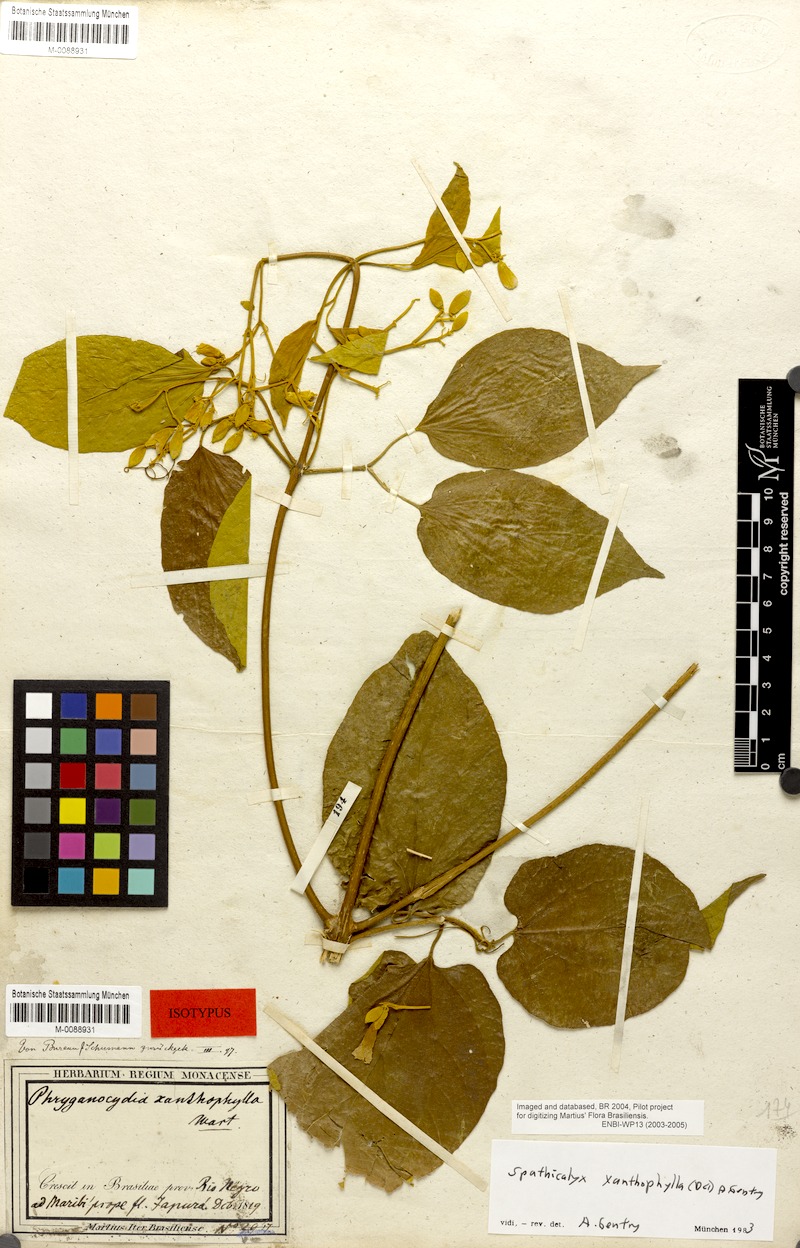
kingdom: Plantae
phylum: Tracheophyta
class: Magnoliopsida
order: Lamiales
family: Bignoniaceae
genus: Tanaecium
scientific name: Tanaecium xanthophyllum
